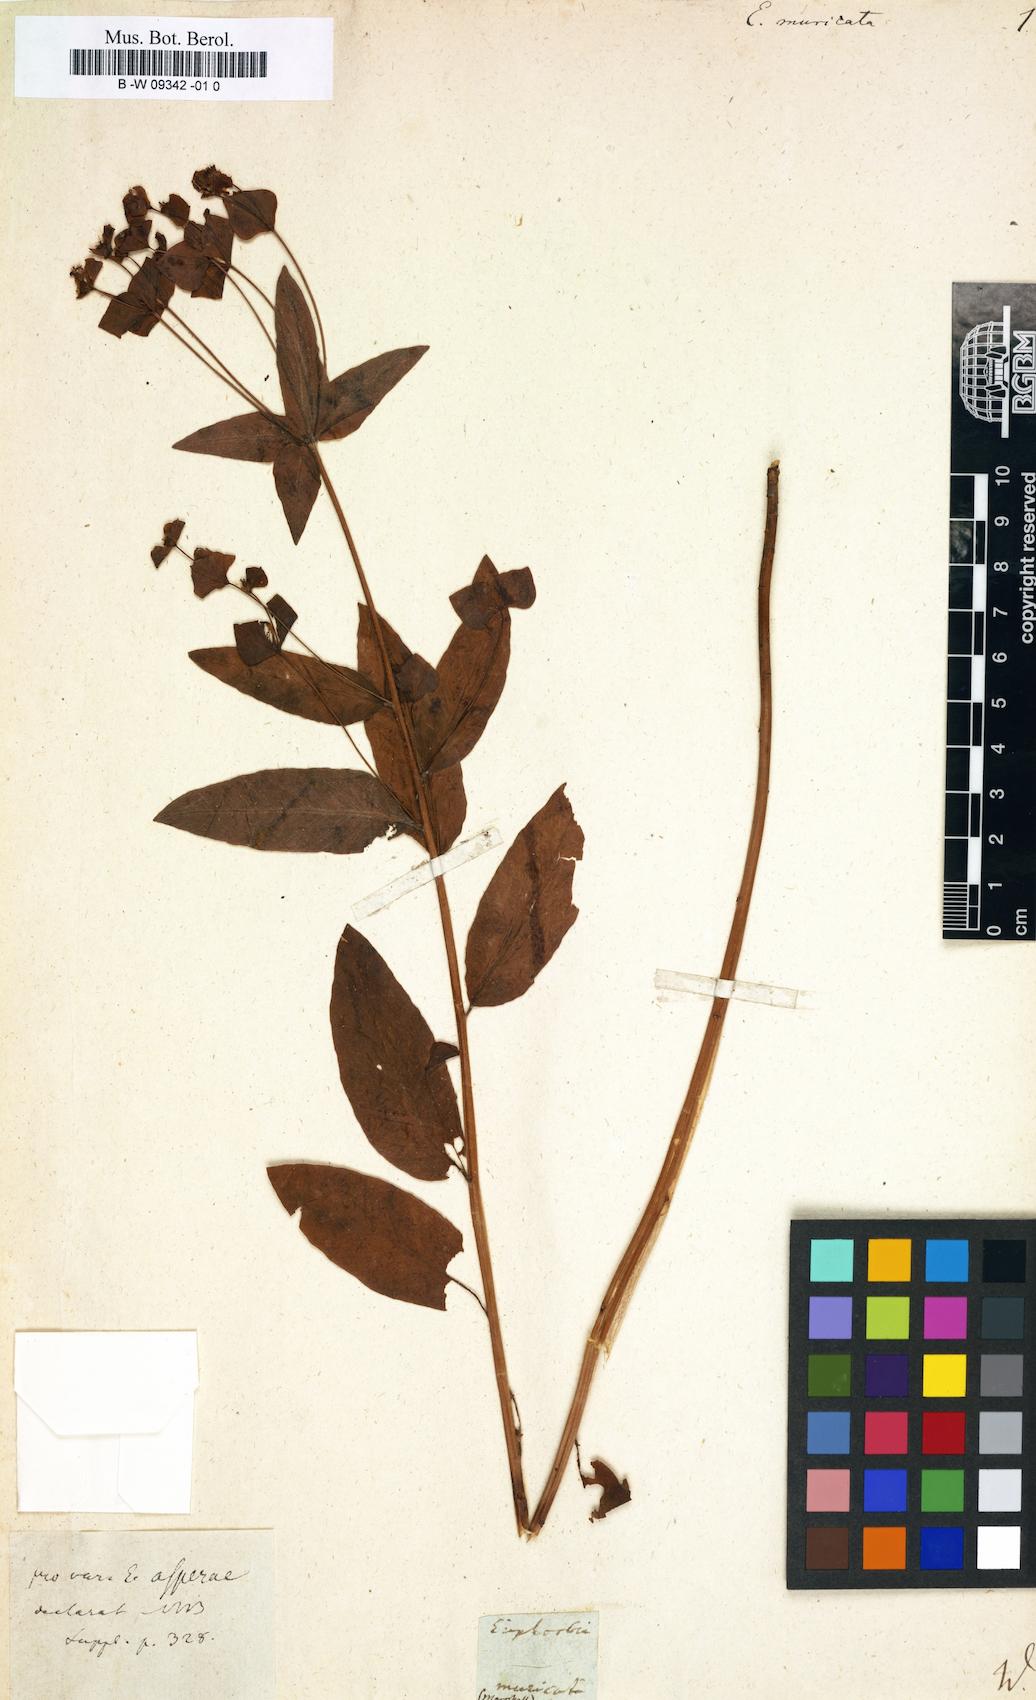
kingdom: Plantae
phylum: Tracheophyta
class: Magnoliopsida
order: Malpighiales
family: Euphorbiaceae
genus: Euphorbia
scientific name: Euphorbia muricata
